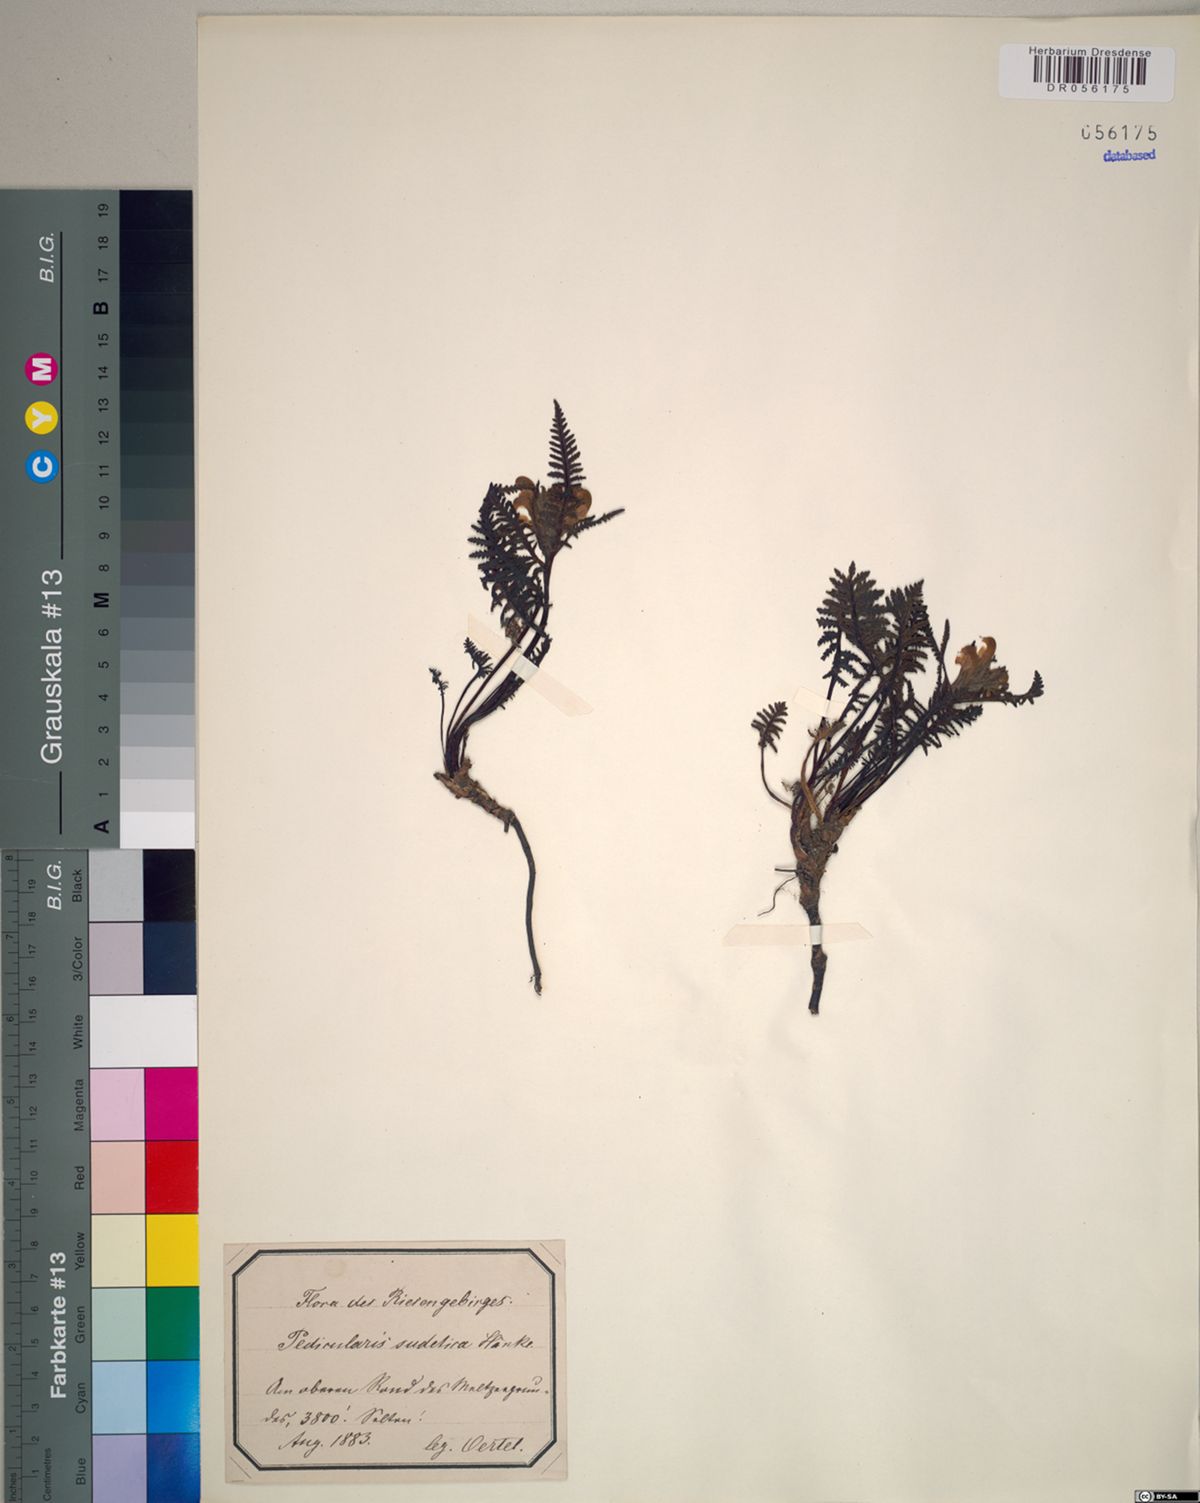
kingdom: Plantae
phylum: Tracheophyta
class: Magnoliopsida
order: Lamiales
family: Orobanchaceae
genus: Pedicularis
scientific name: Pedicularis sudetica
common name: Sudeten lousewort
